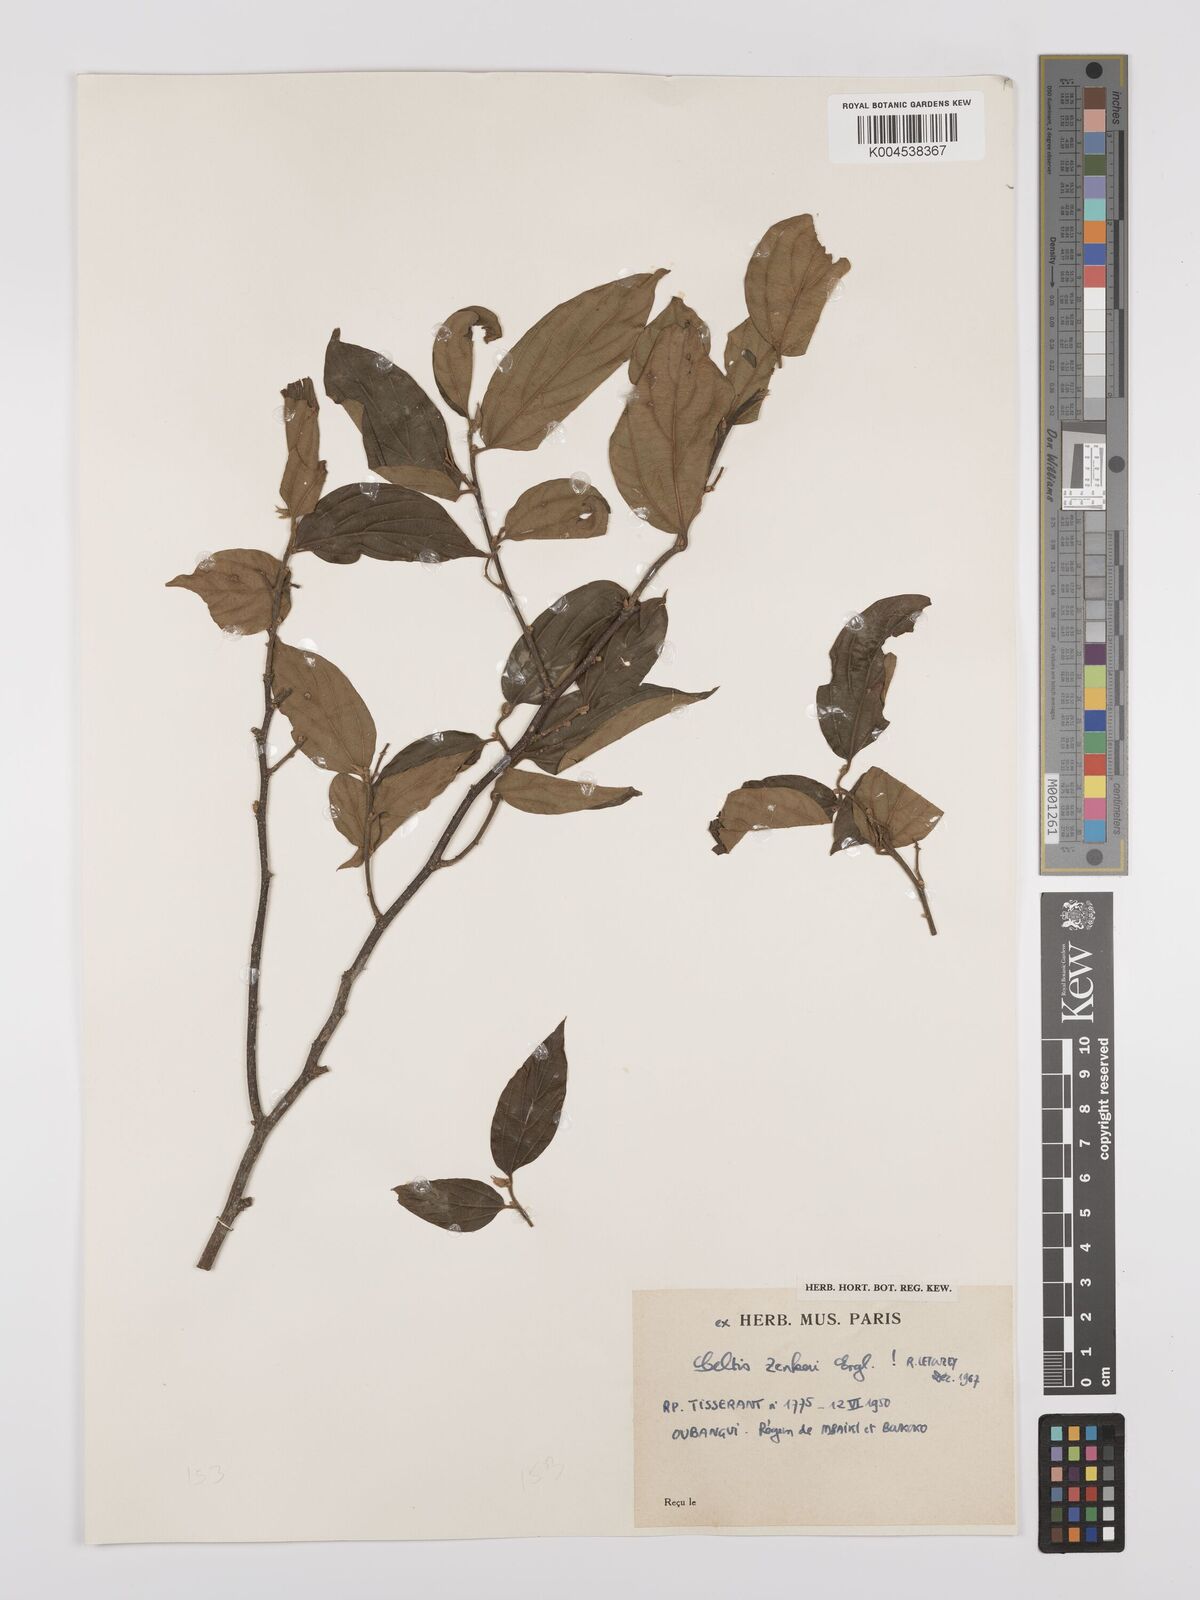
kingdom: Plantae
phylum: Tracheophyta
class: Magnoliopsida
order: Rosales
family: Cannabaceae
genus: Celtis
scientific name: Celtis zenkeri
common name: African celtis
